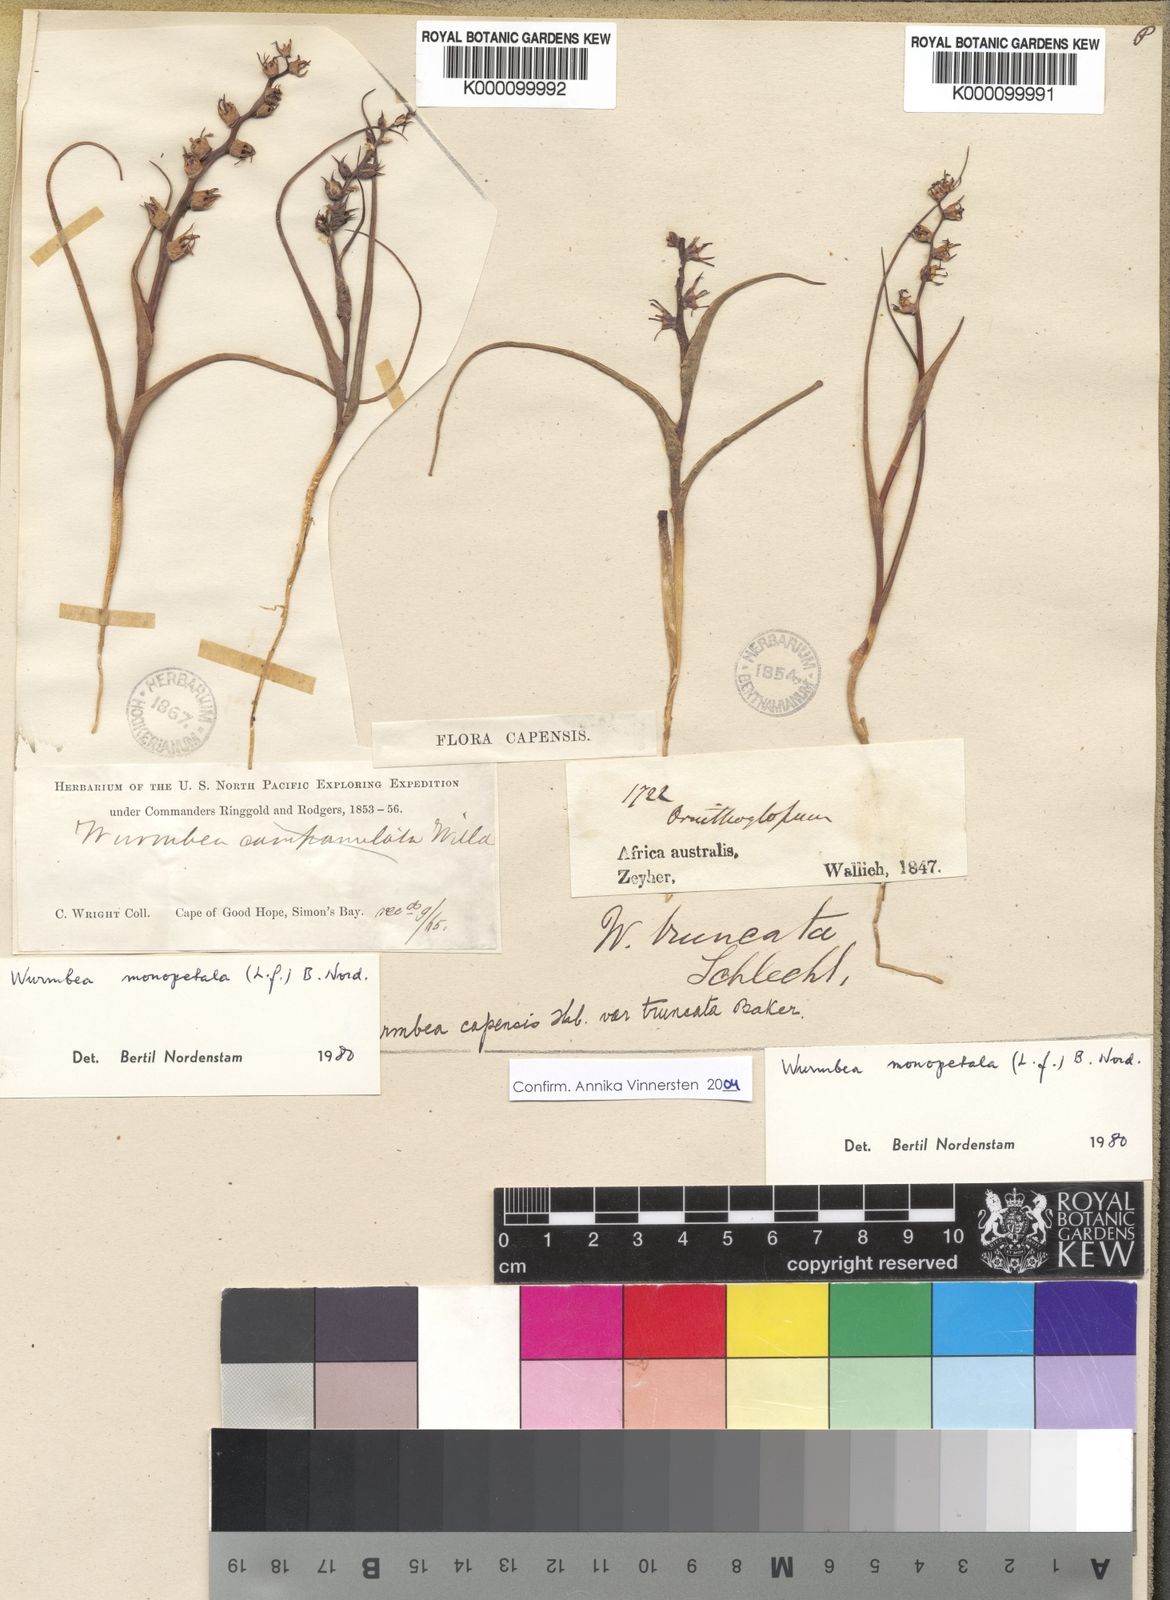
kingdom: Plantae
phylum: Tracheophyta
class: Liliopsida
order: Liliales
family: Colchicaceae
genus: Wurmbea
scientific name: Wurmbea monopetala
